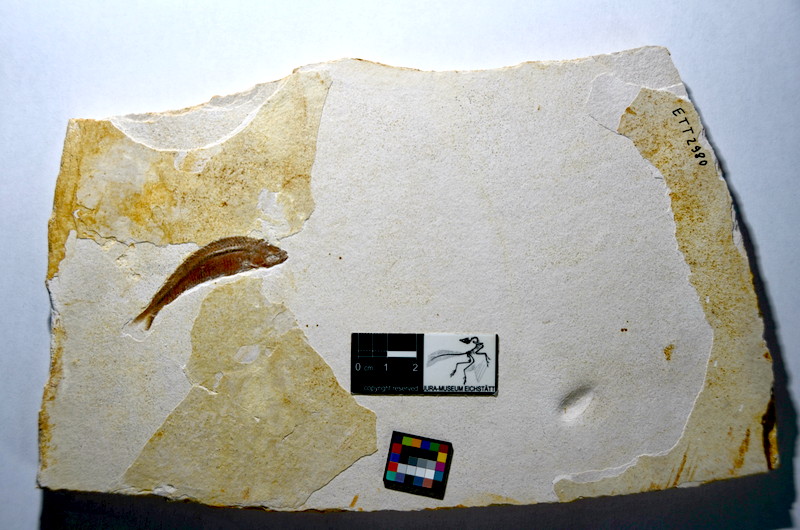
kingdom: Animalia
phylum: Chordata
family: Pleuropholidae
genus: Pleuropholis
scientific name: Pleuropholis laevissima
